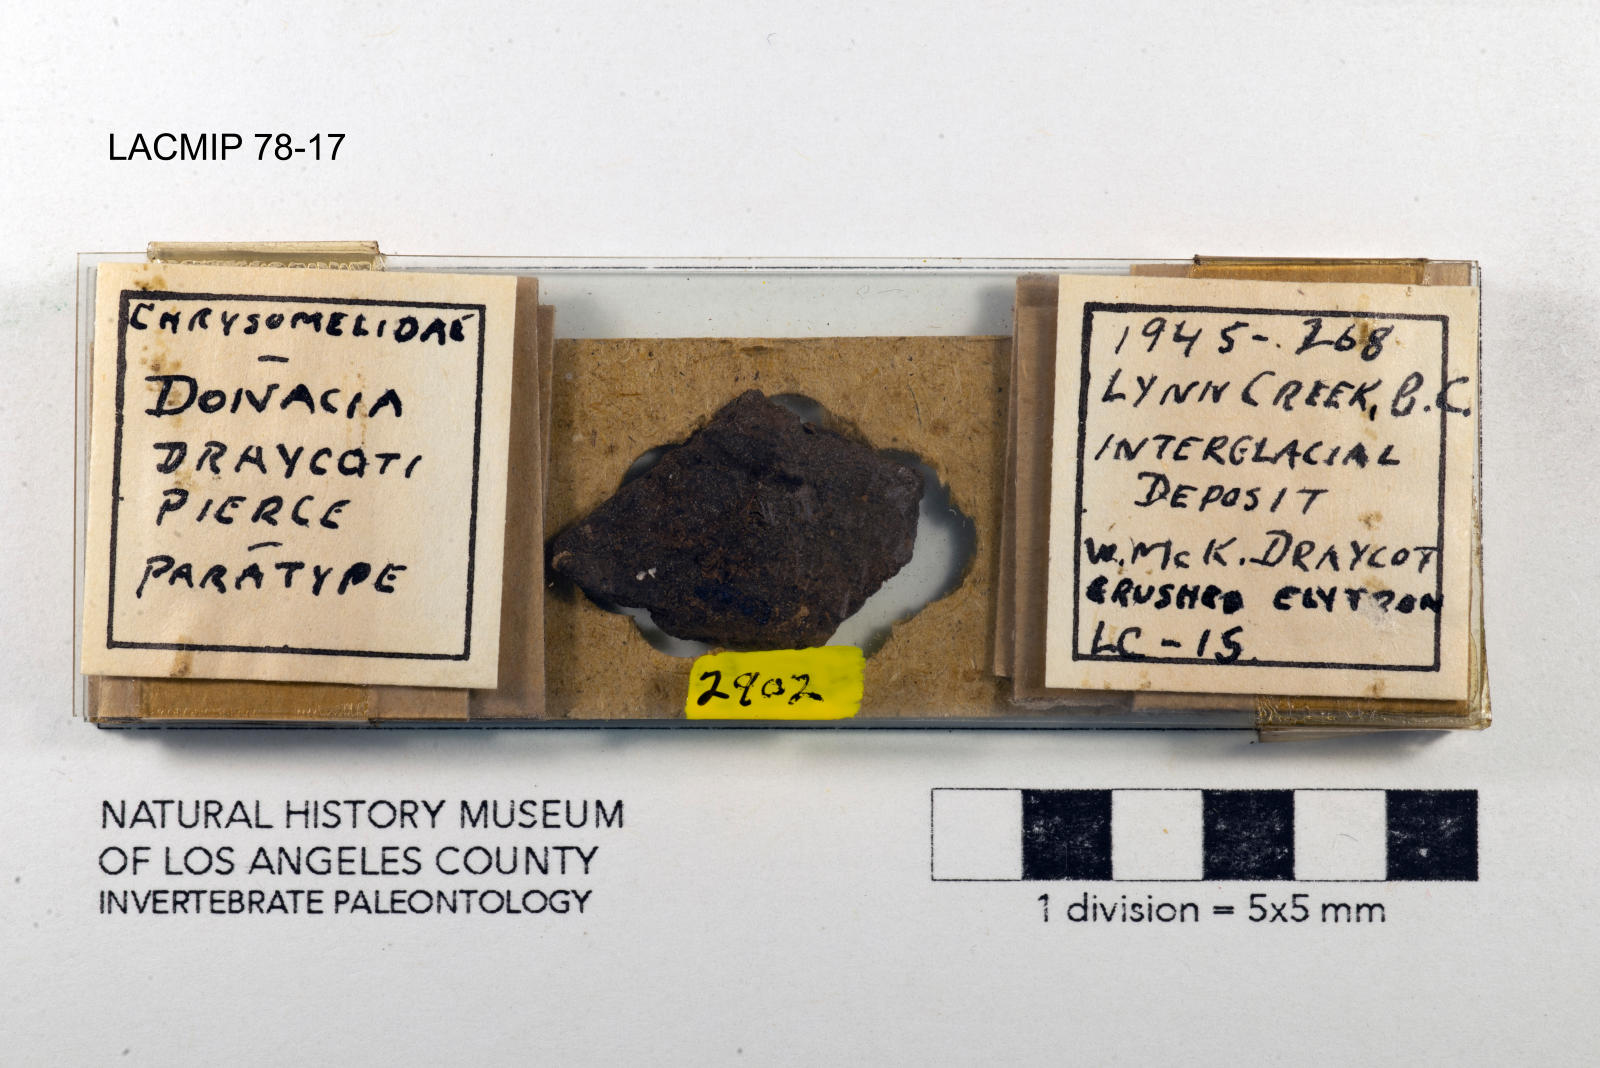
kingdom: Animalia
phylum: Arthropoda
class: Insecta
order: Coleoptera
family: Chrysomelidae
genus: Donacia
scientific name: Donacia draycoti
